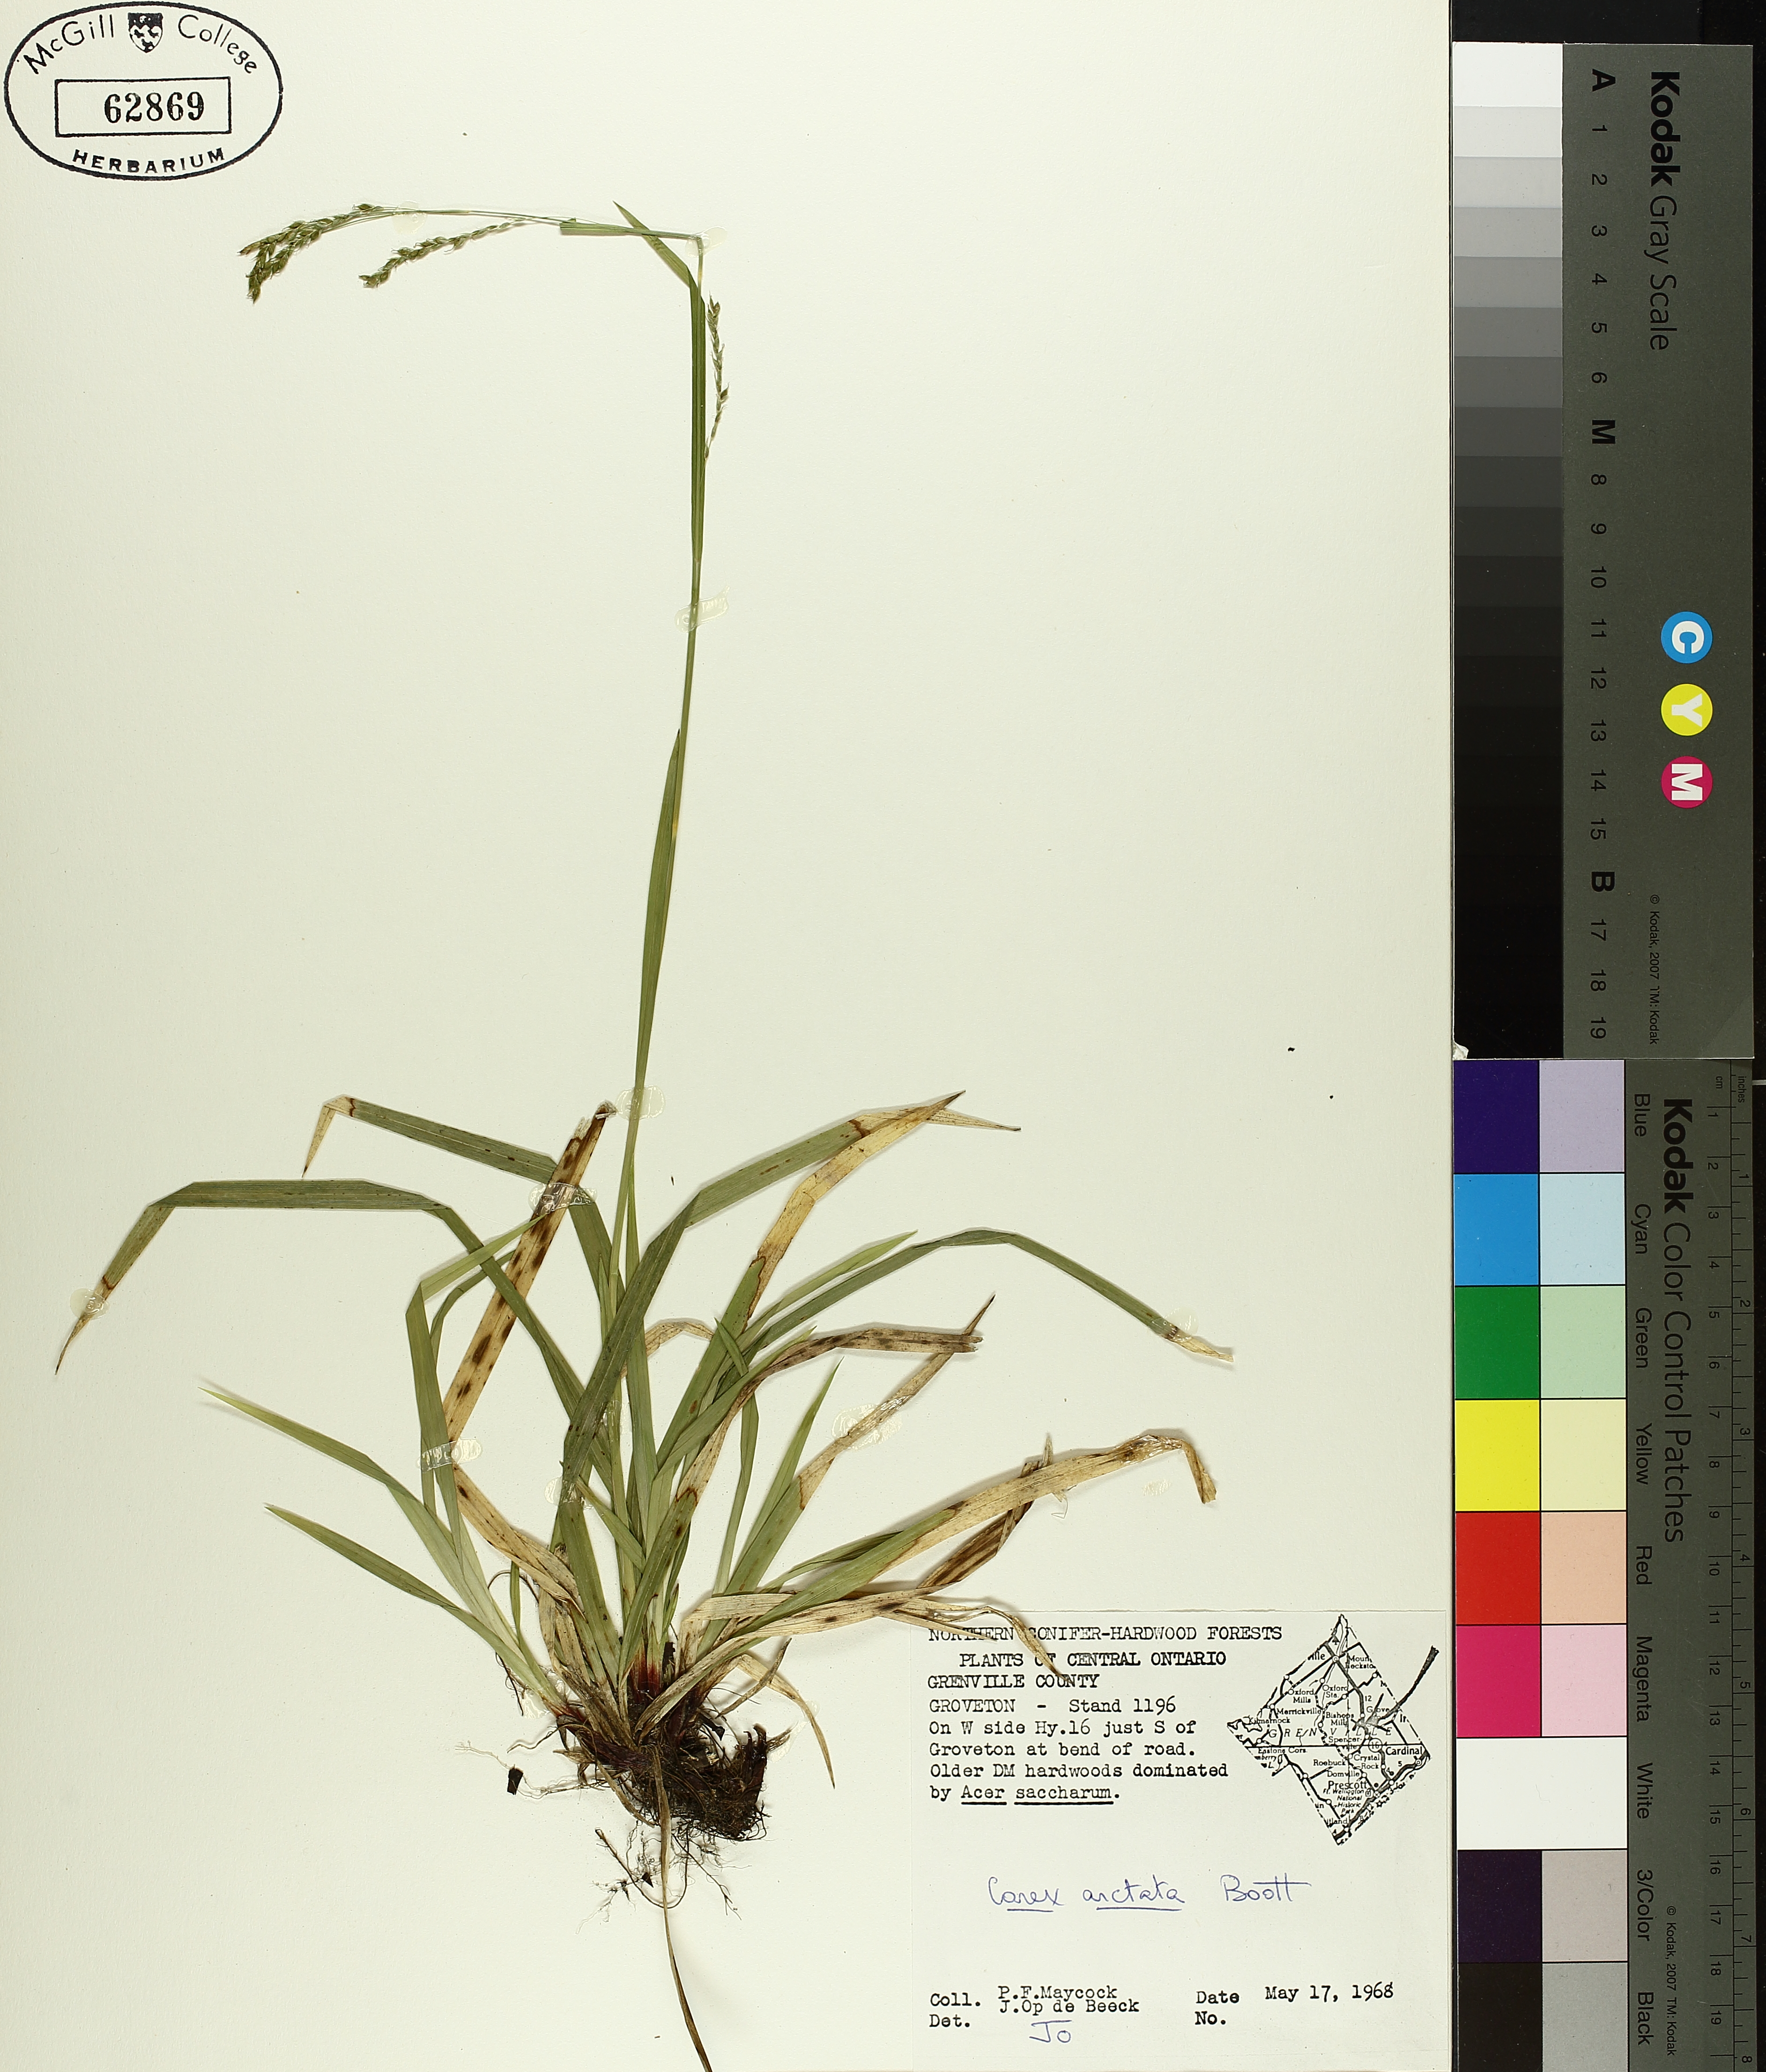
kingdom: Plantae
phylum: Tracheophyta
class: Liliopsida
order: Poales
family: Cyperaceae
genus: Carex
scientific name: Carex arctata
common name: Black sedge
